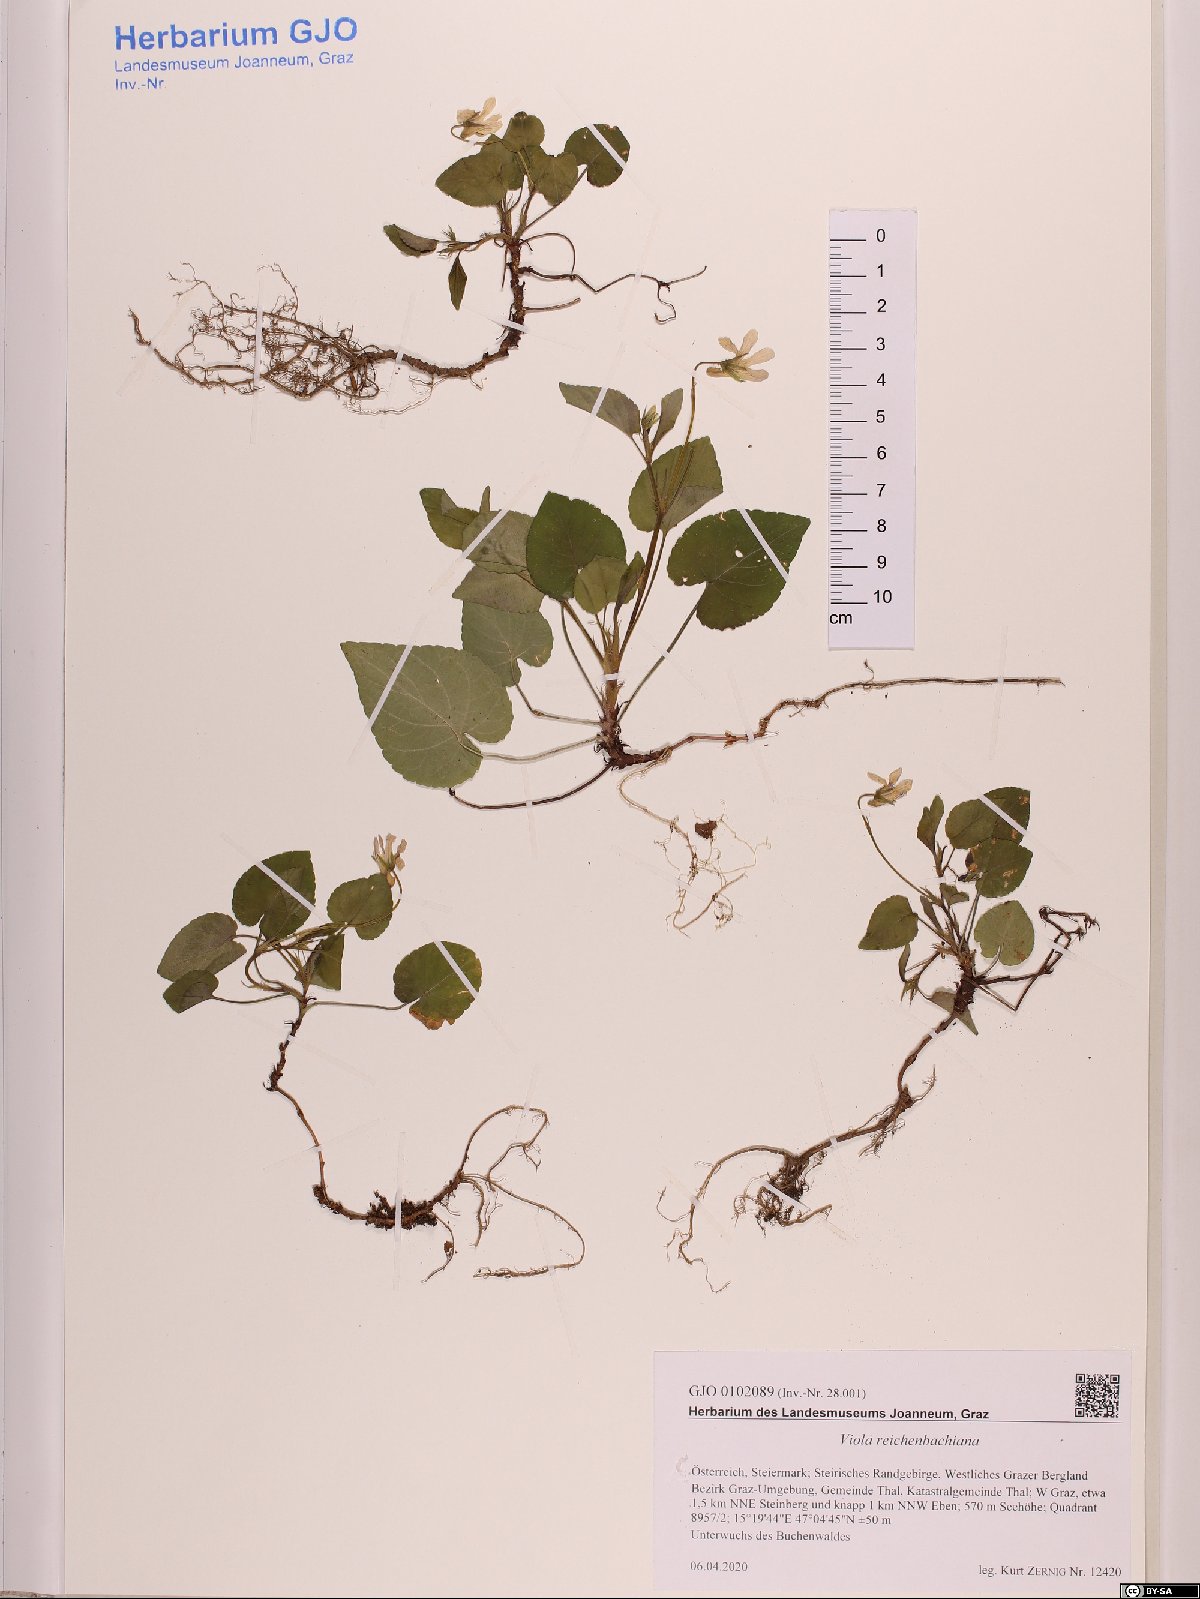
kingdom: Plantae
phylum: Tracheophyta
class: Magnoliopsida
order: Malpighiales
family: Violaceae
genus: Viola
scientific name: Viola reichenbachiana
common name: Early dog-violet
